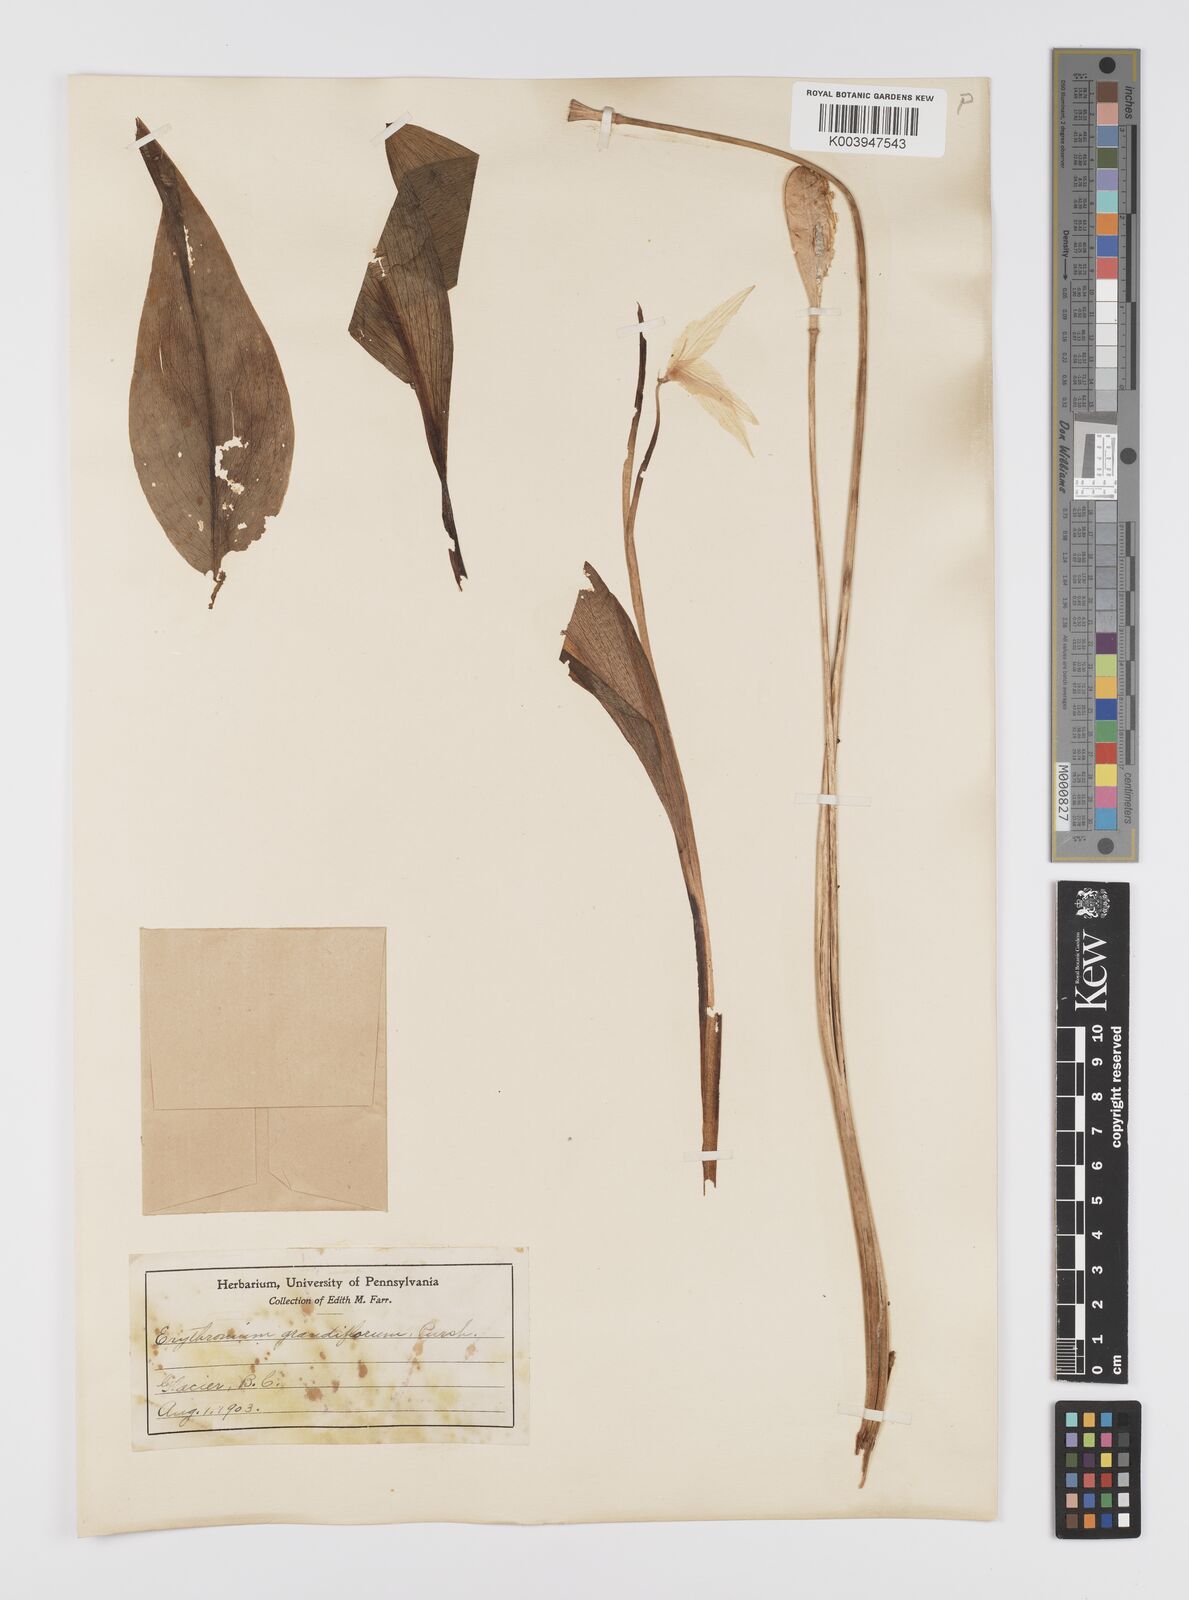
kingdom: Plantae
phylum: Tracheophyta
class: Liliopsida
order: Liliales
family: Liliaceae
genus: Erythronium
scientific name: Erythronium grandiflorum
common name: Avalanche-lily
